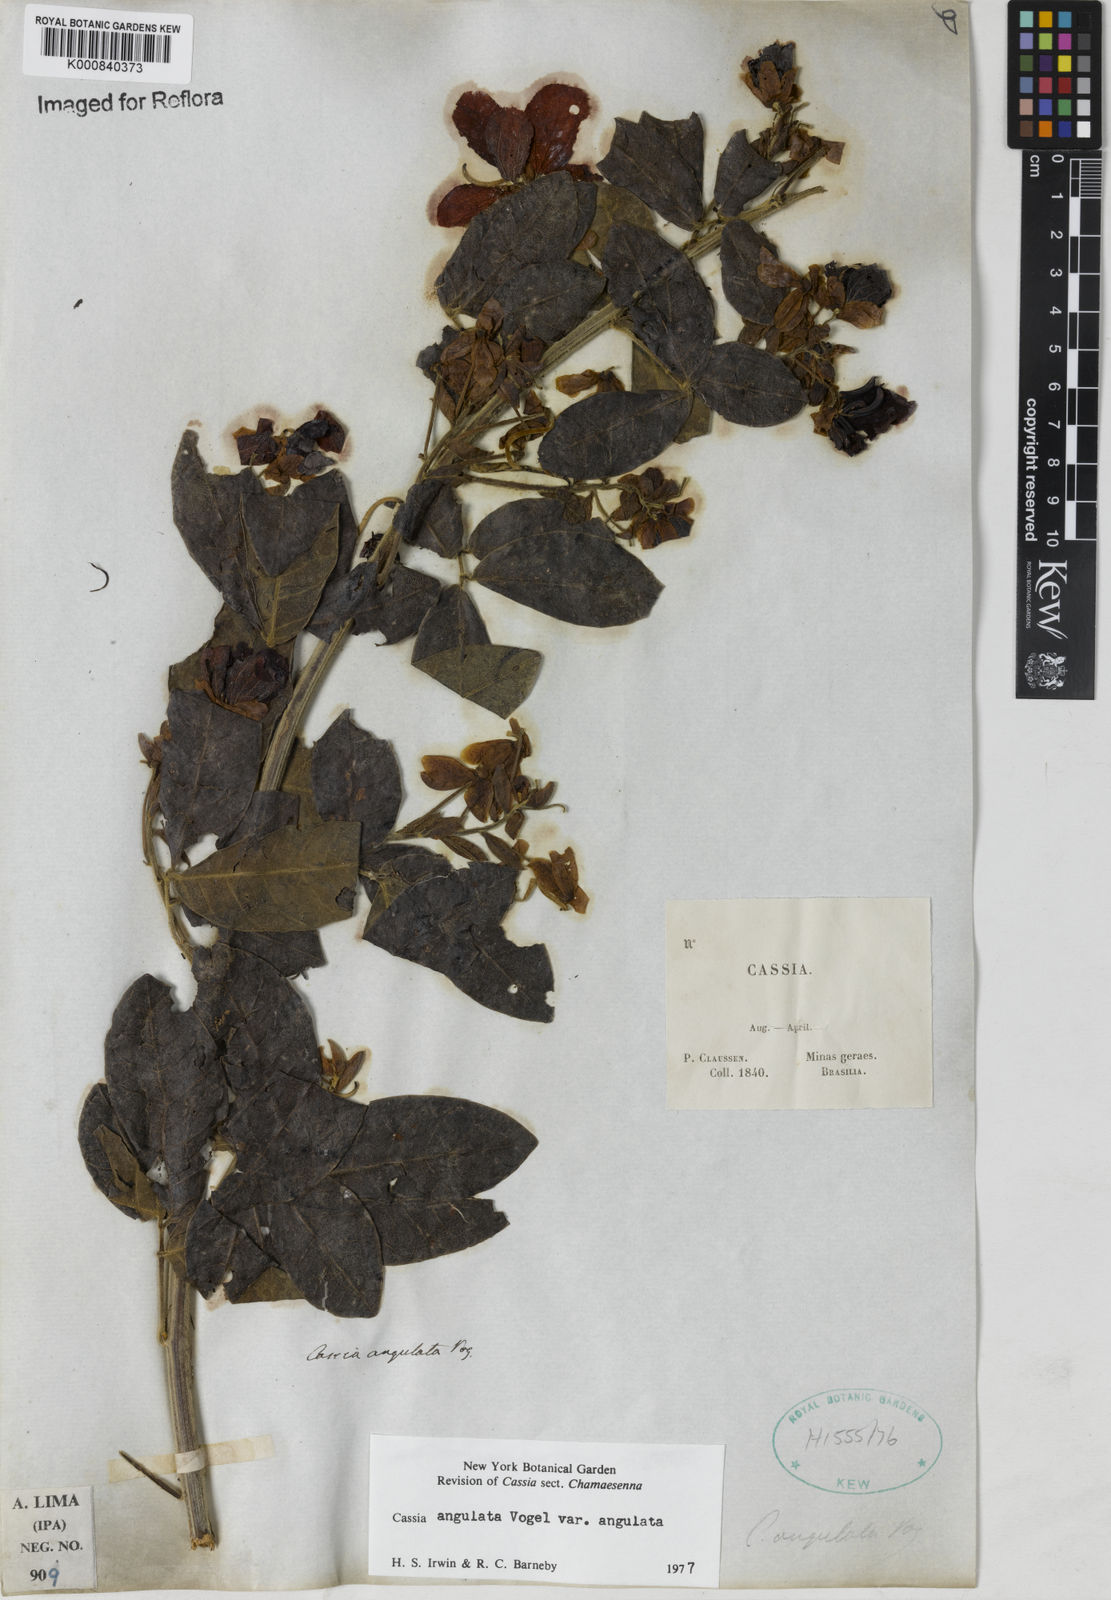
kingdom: Plantae
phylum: Tracheophyta
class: Magnoliopsida
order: Fabales
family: Fabaceae
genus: Senna
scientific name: Senna angulata
